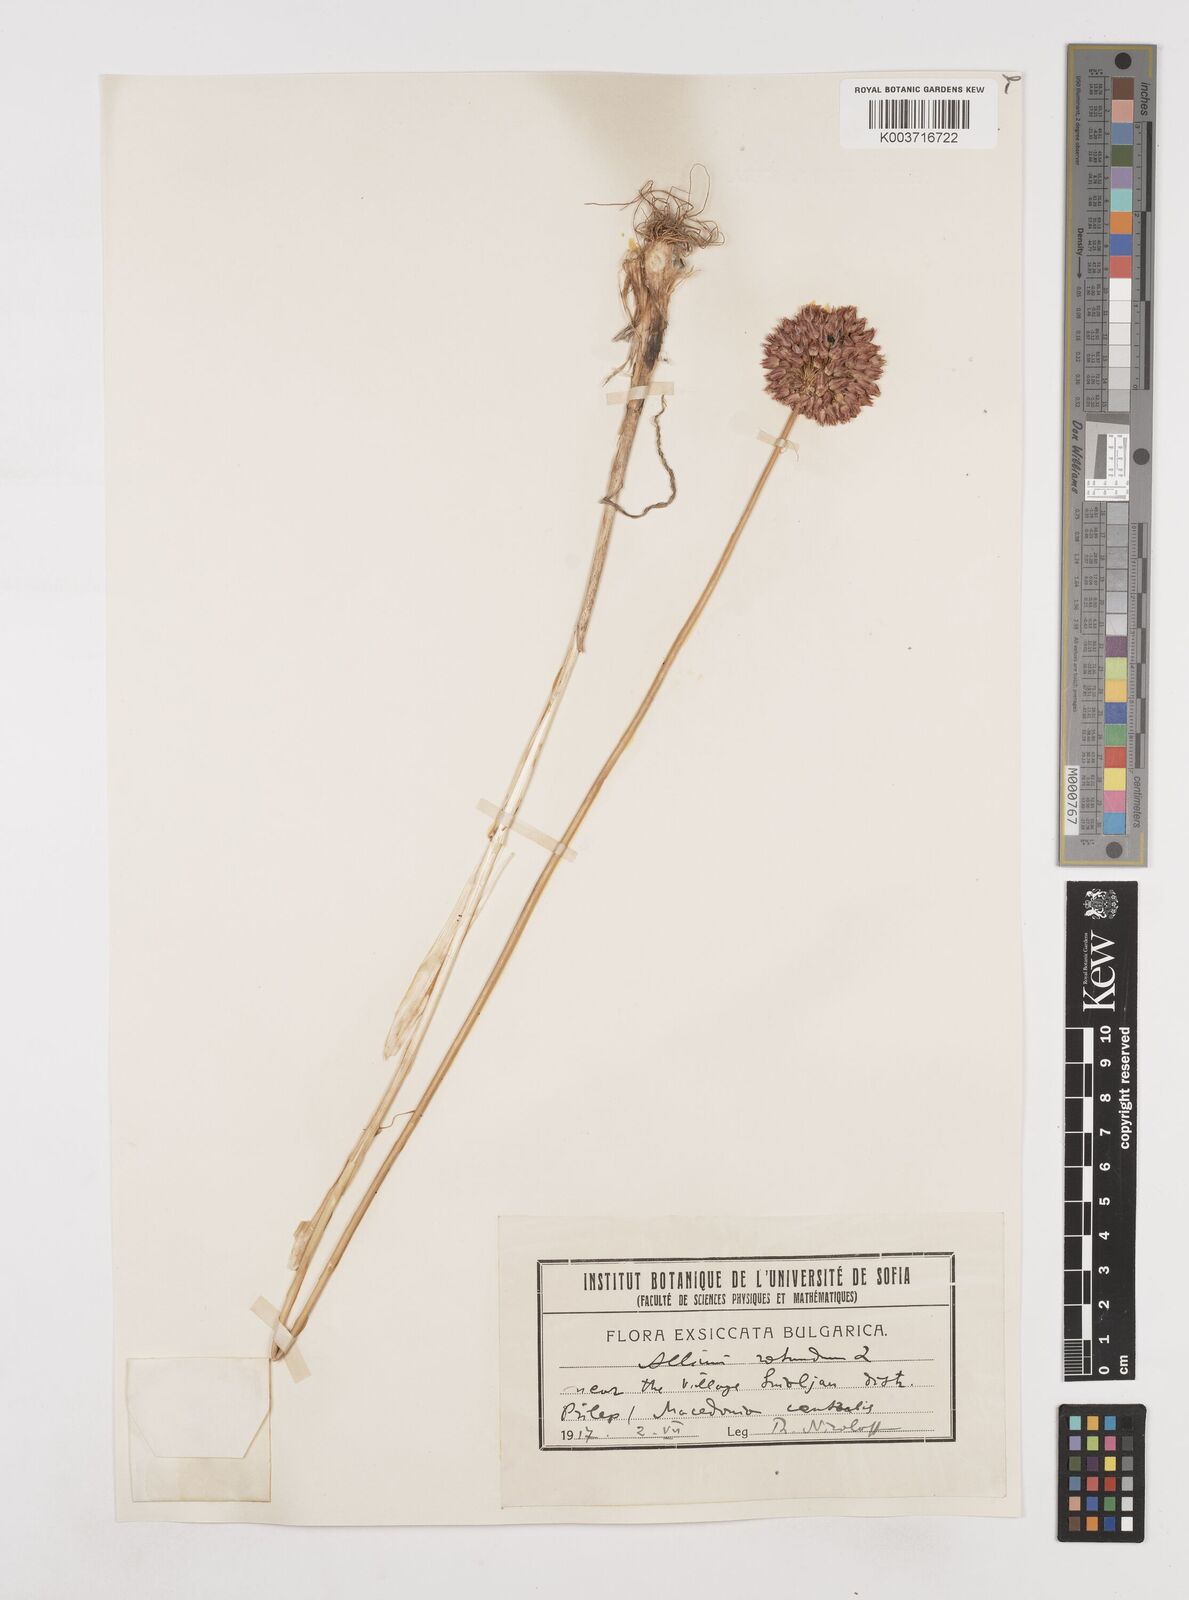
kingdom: Plantae
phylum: Tracheophyta
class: Liliopsida
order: Asparagales
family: Amaryllidaceae
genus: Allium
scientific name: Allium rotundum
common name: Sand leek
